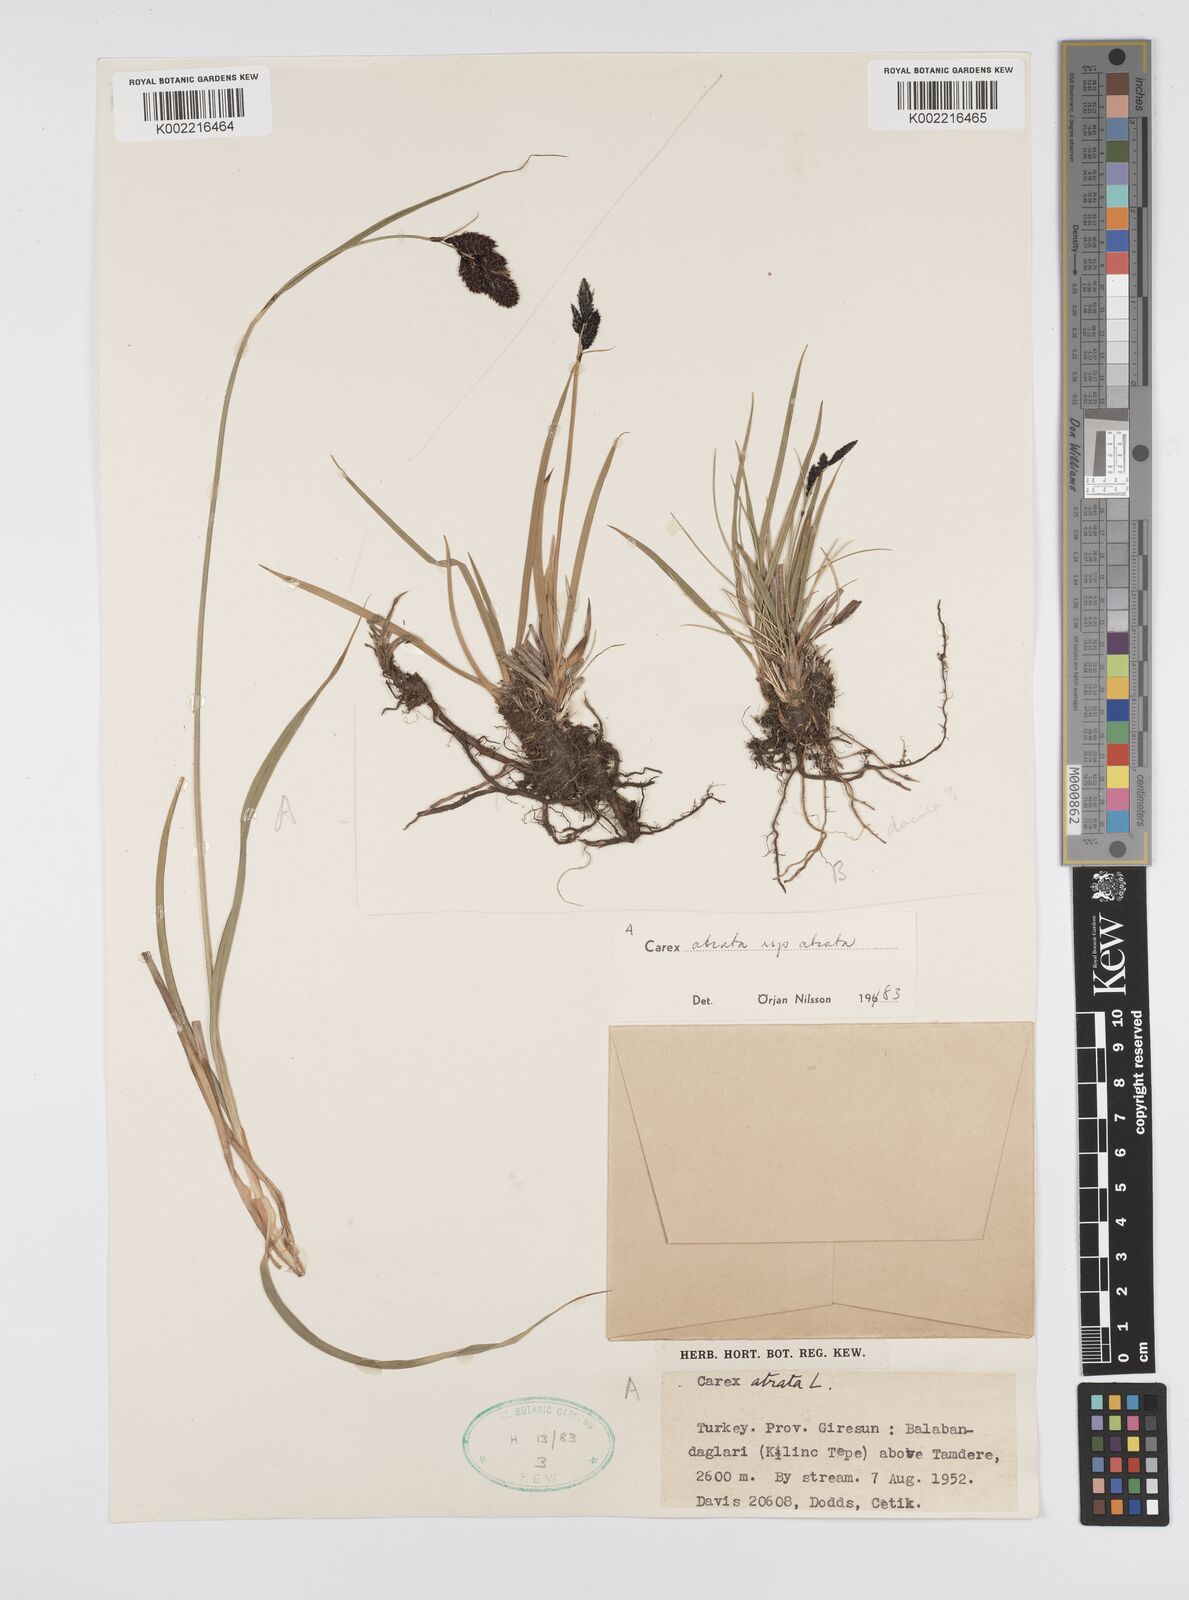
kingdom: Plantae
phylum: Tracheophyta
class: Liliopsida
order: Poales
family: Cyperaceae
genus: Carex
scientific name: Carex atrata
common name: Black alpine sedge
